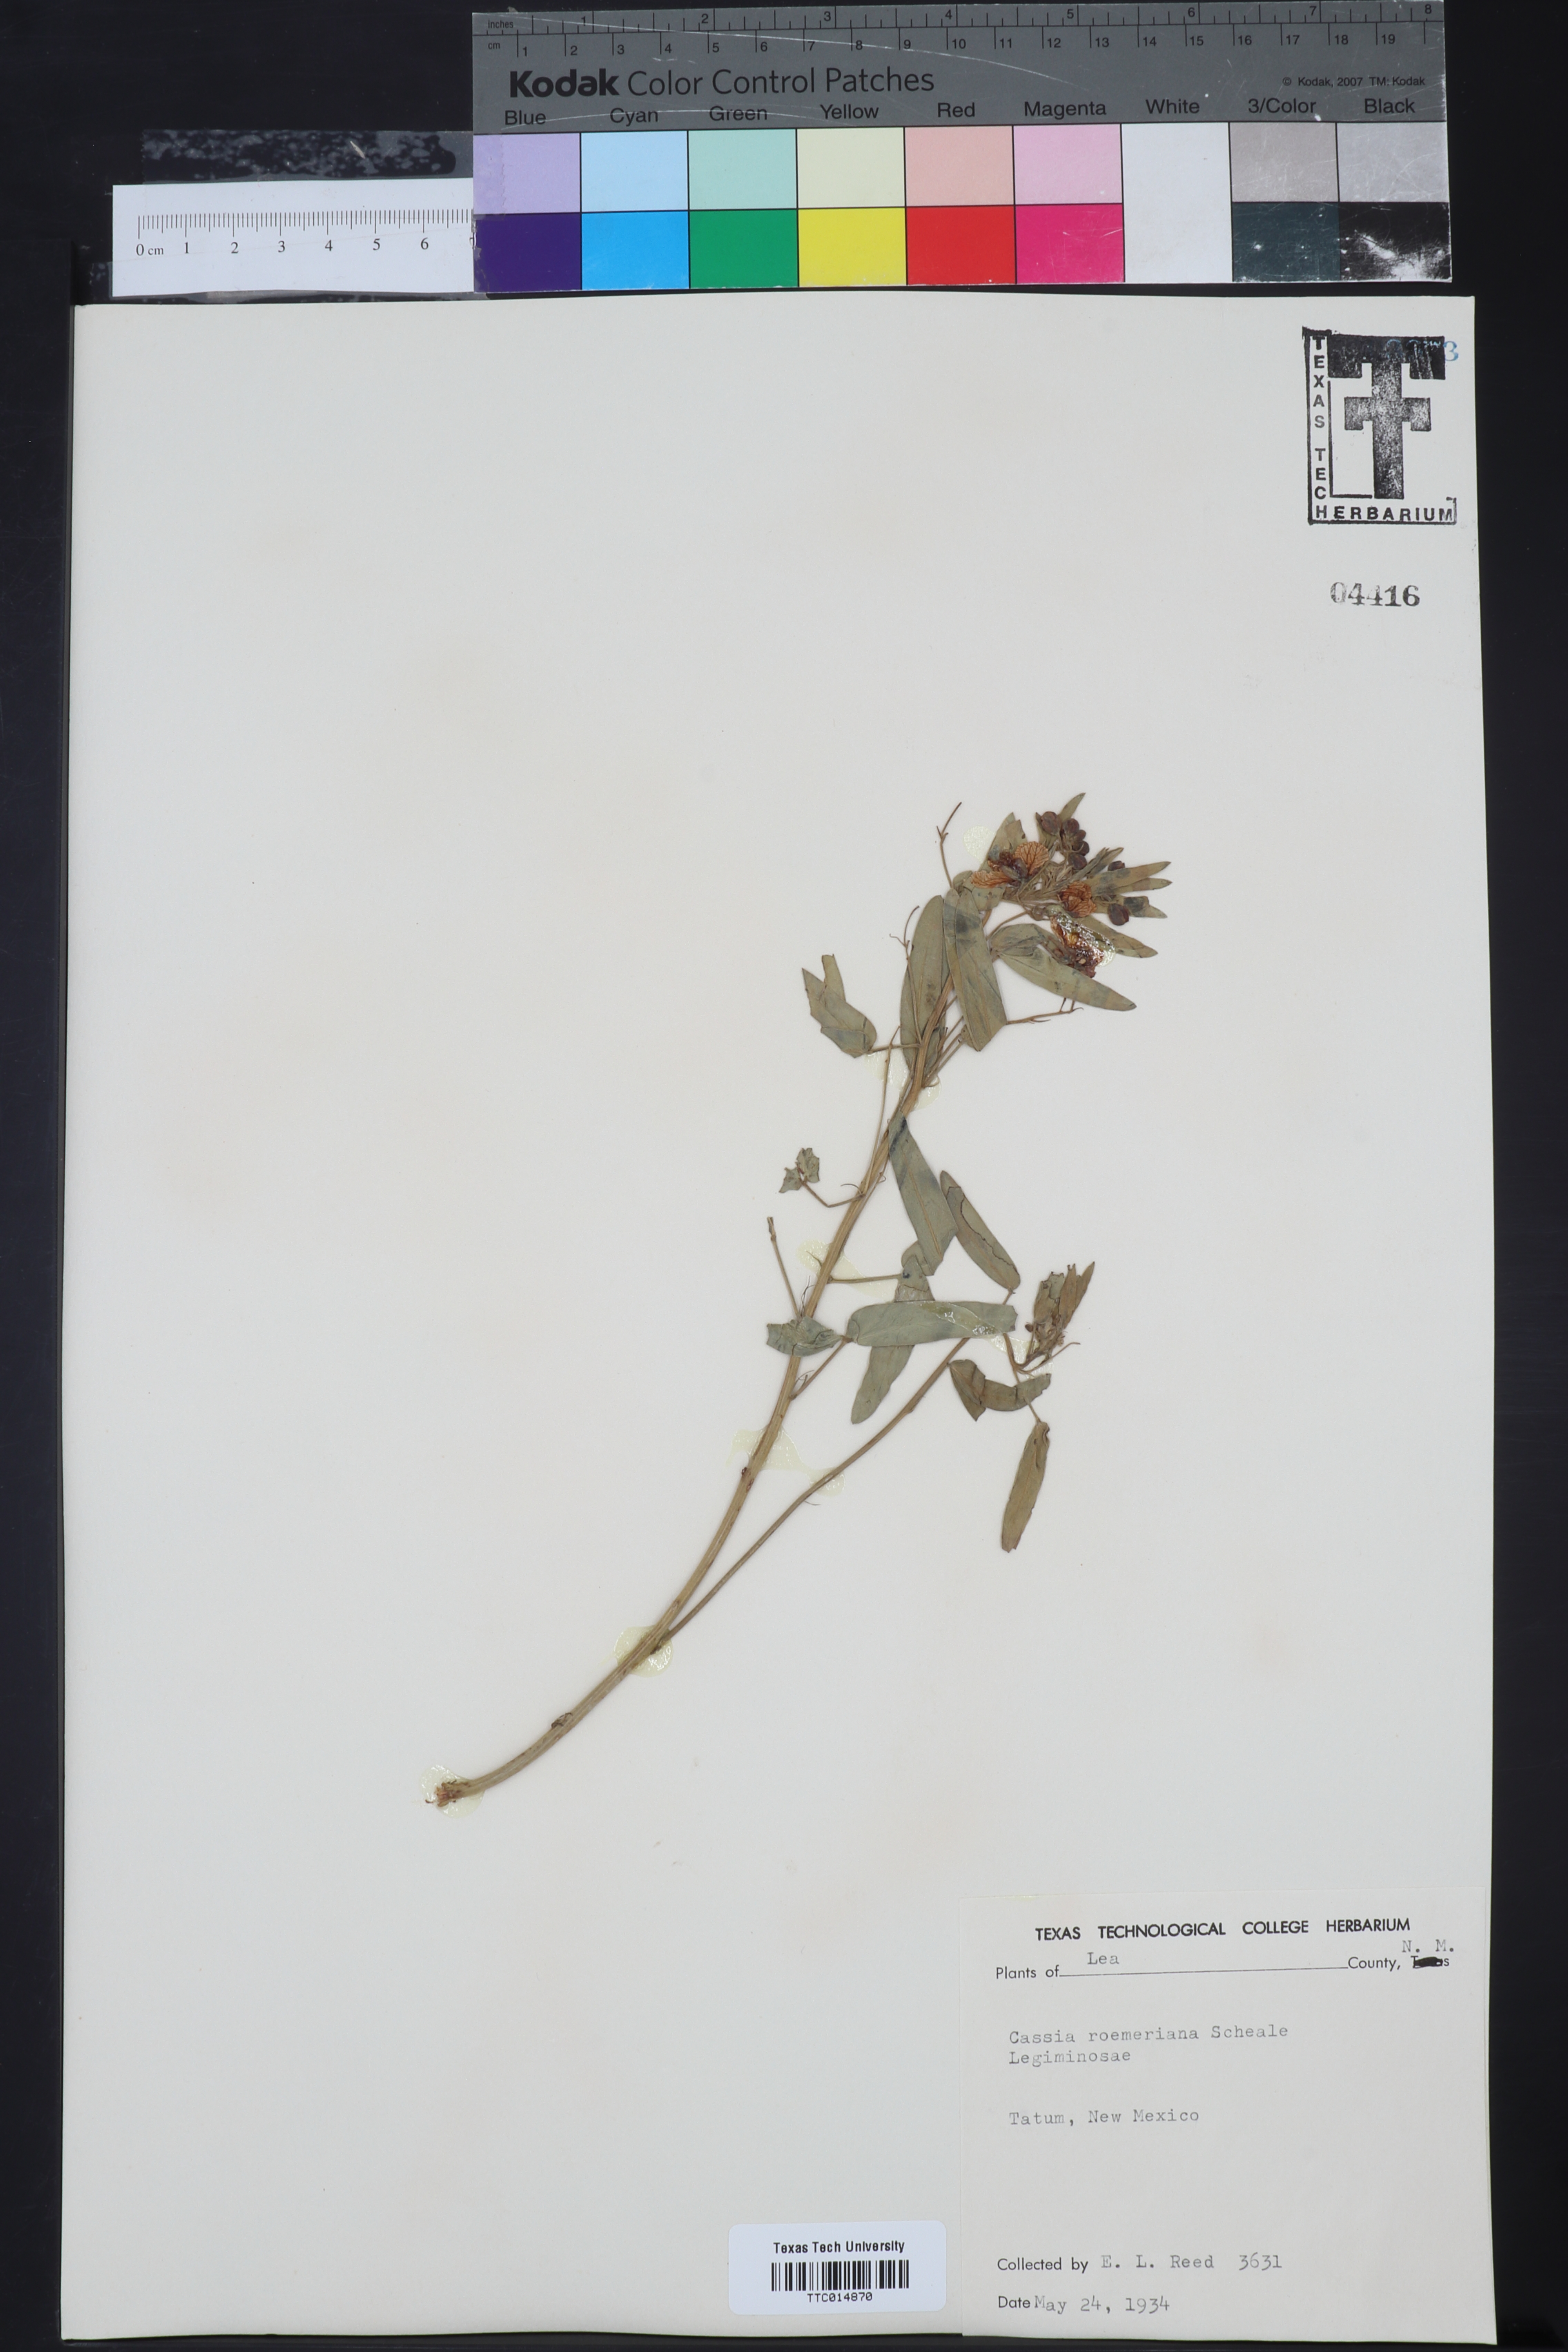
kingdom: Plantae
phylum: Tracheophyta
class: Magnoliopsida
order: Fabales
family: Fabaceae
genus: Senna
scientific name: Senna roemeriana
